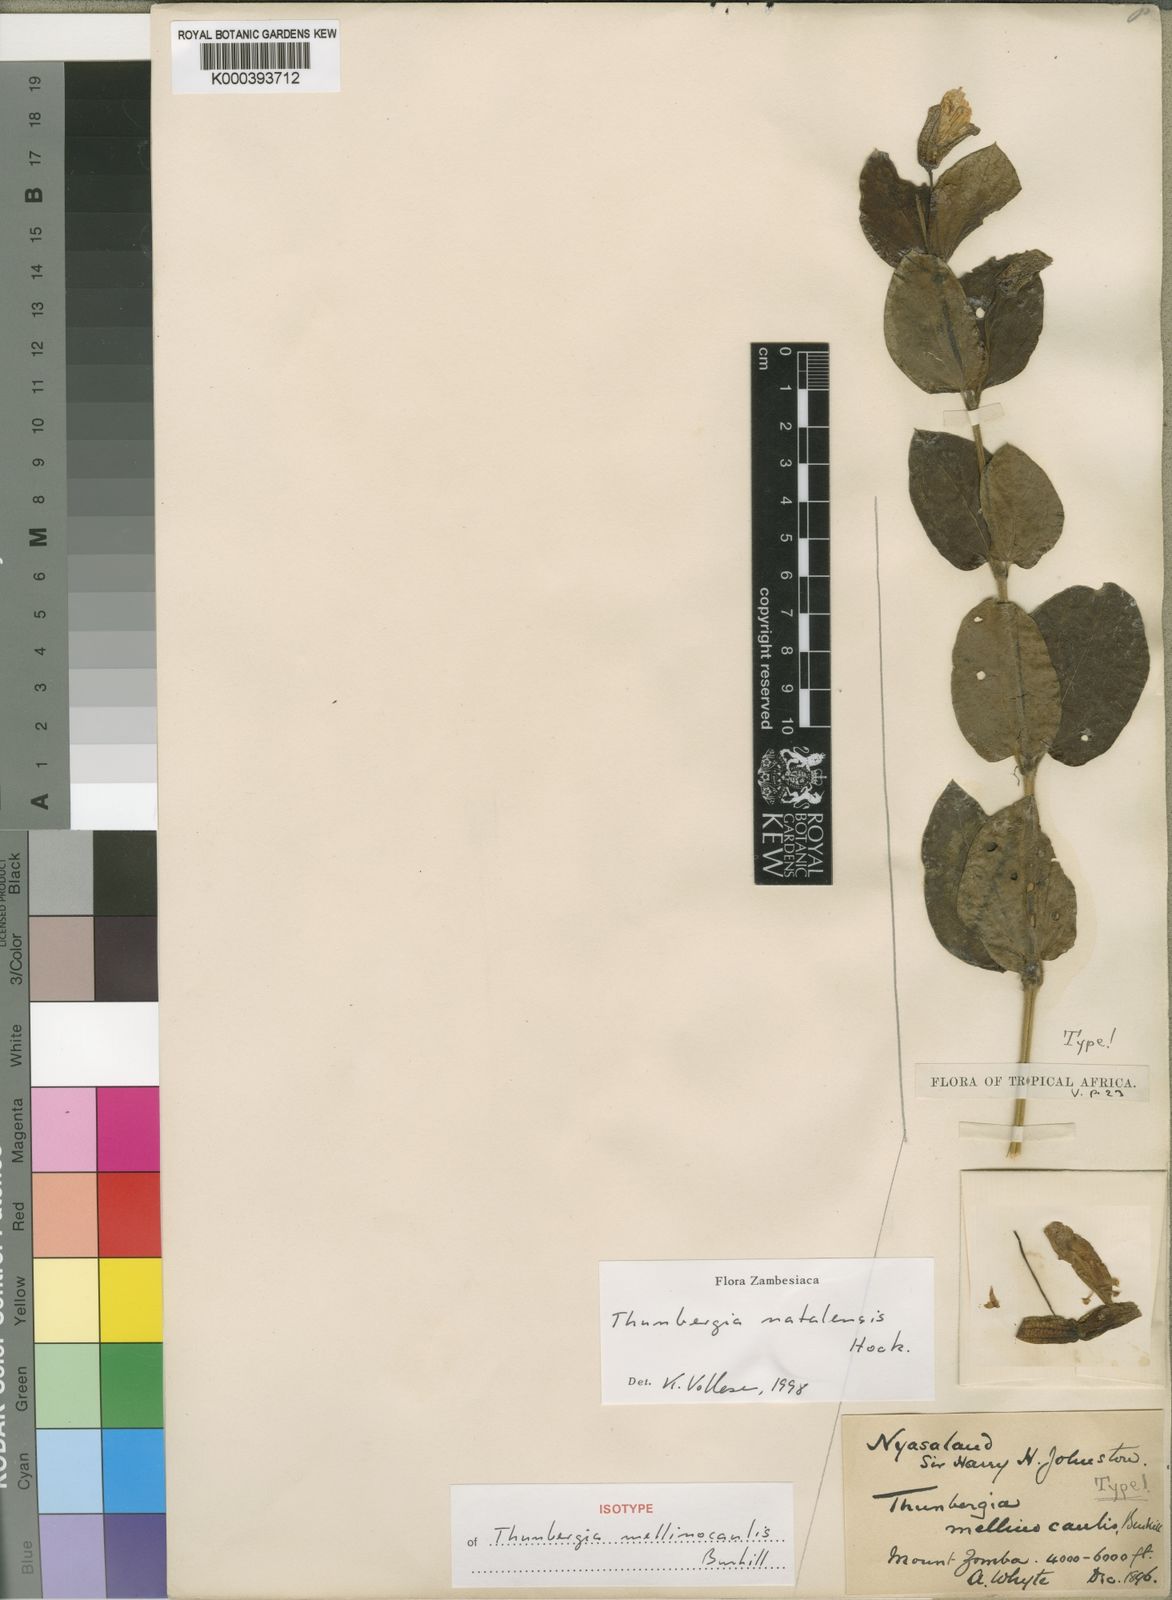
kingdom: Plantae
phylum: Tracheophyta
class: Magnoliopsida
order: Lamiales
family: Acanthaceae
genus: Thunbergia
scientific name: Thunbergia natalensis
